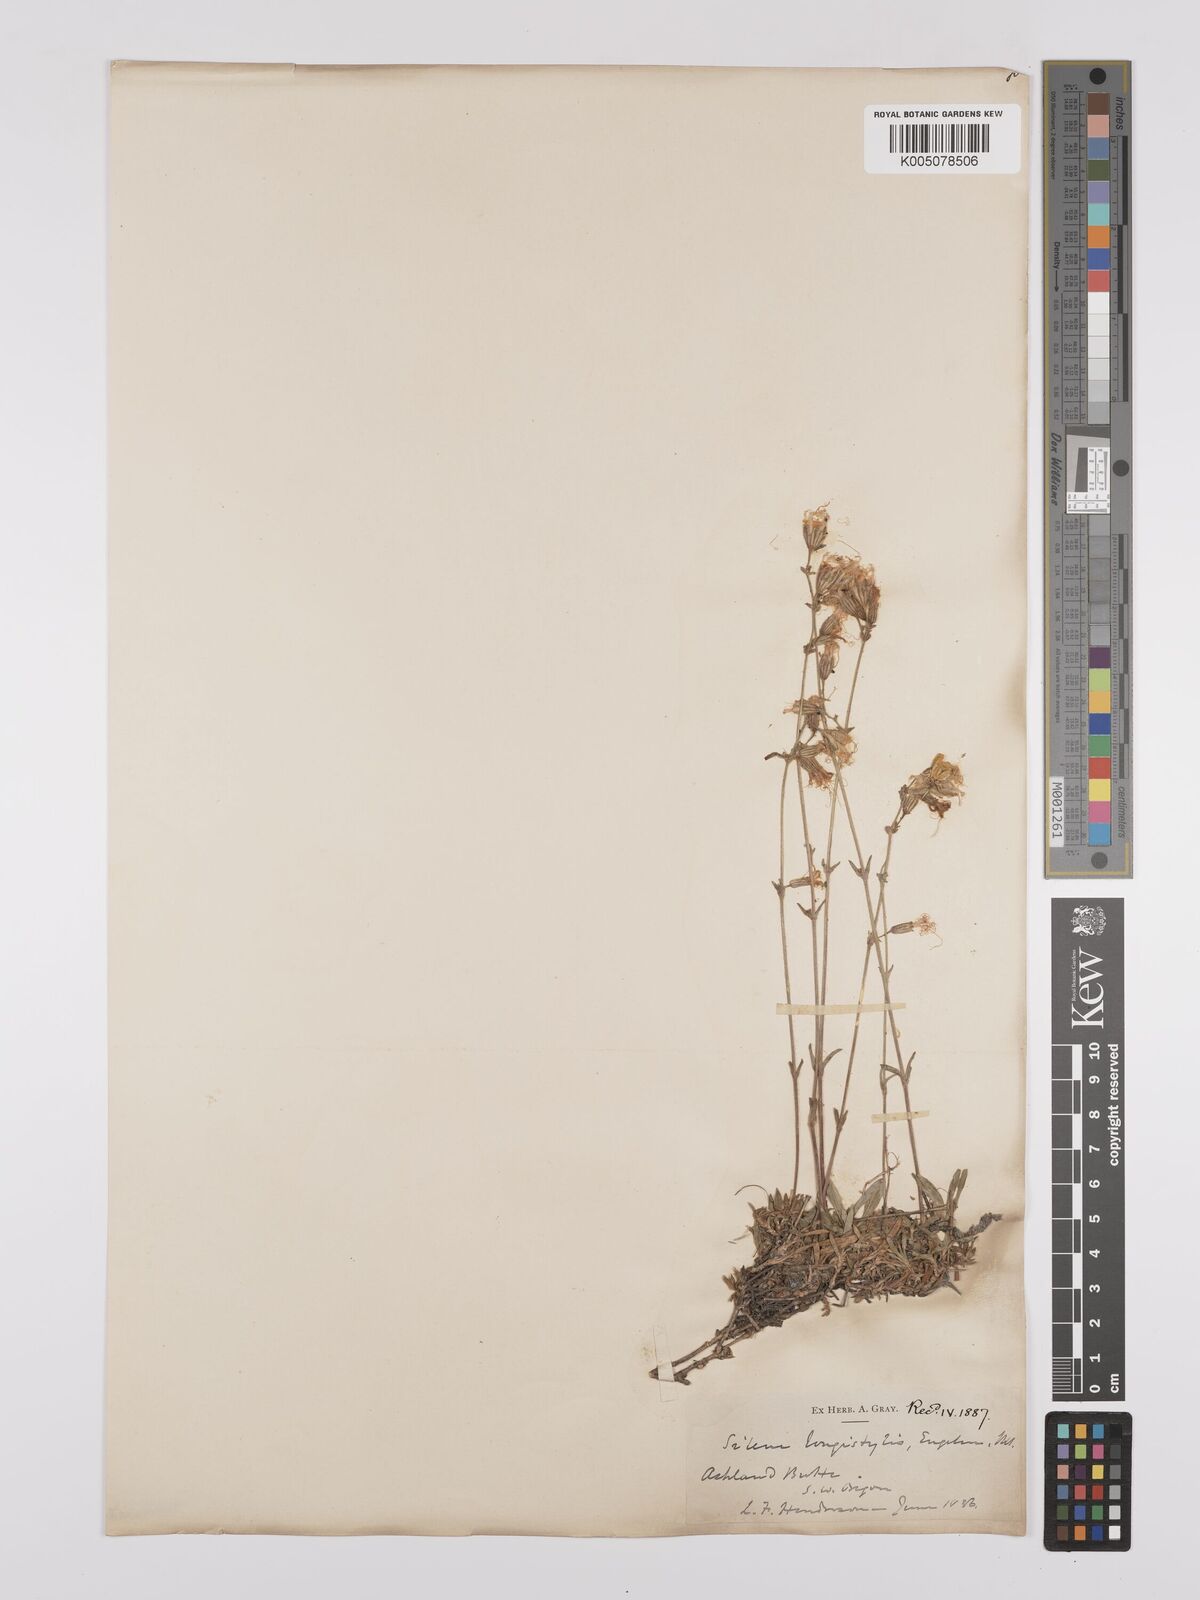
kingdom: Plantae
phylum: Tracheophyta
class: Magnoliopsida
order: Caryophyllales
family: Caryophyllaceae
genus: Silene
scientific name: Silene lemmonii
